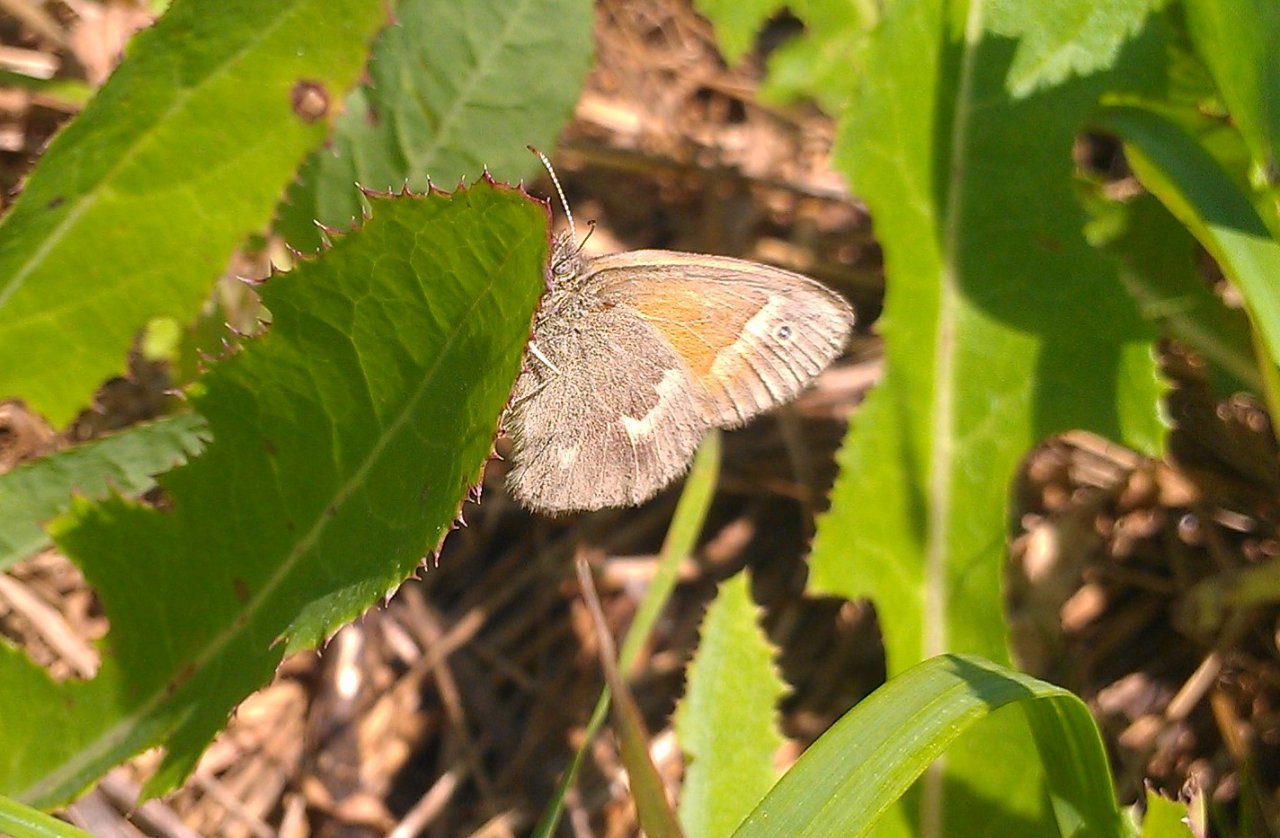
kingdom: Animalia
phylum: Arthropoda
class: Insecta
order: Lepidoptera
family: Nymphalidae
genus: Coenonympha
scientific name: Coenonympha tullia
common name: Large Heath
